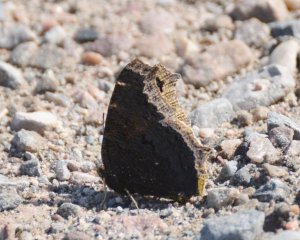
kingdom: Animalia
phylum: Arthropoda
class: Insecta
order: Lepidoptera
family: Nymphalidae
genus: Nymphalis
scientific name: Nymphalis antiopa
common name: Mourning Cloak
